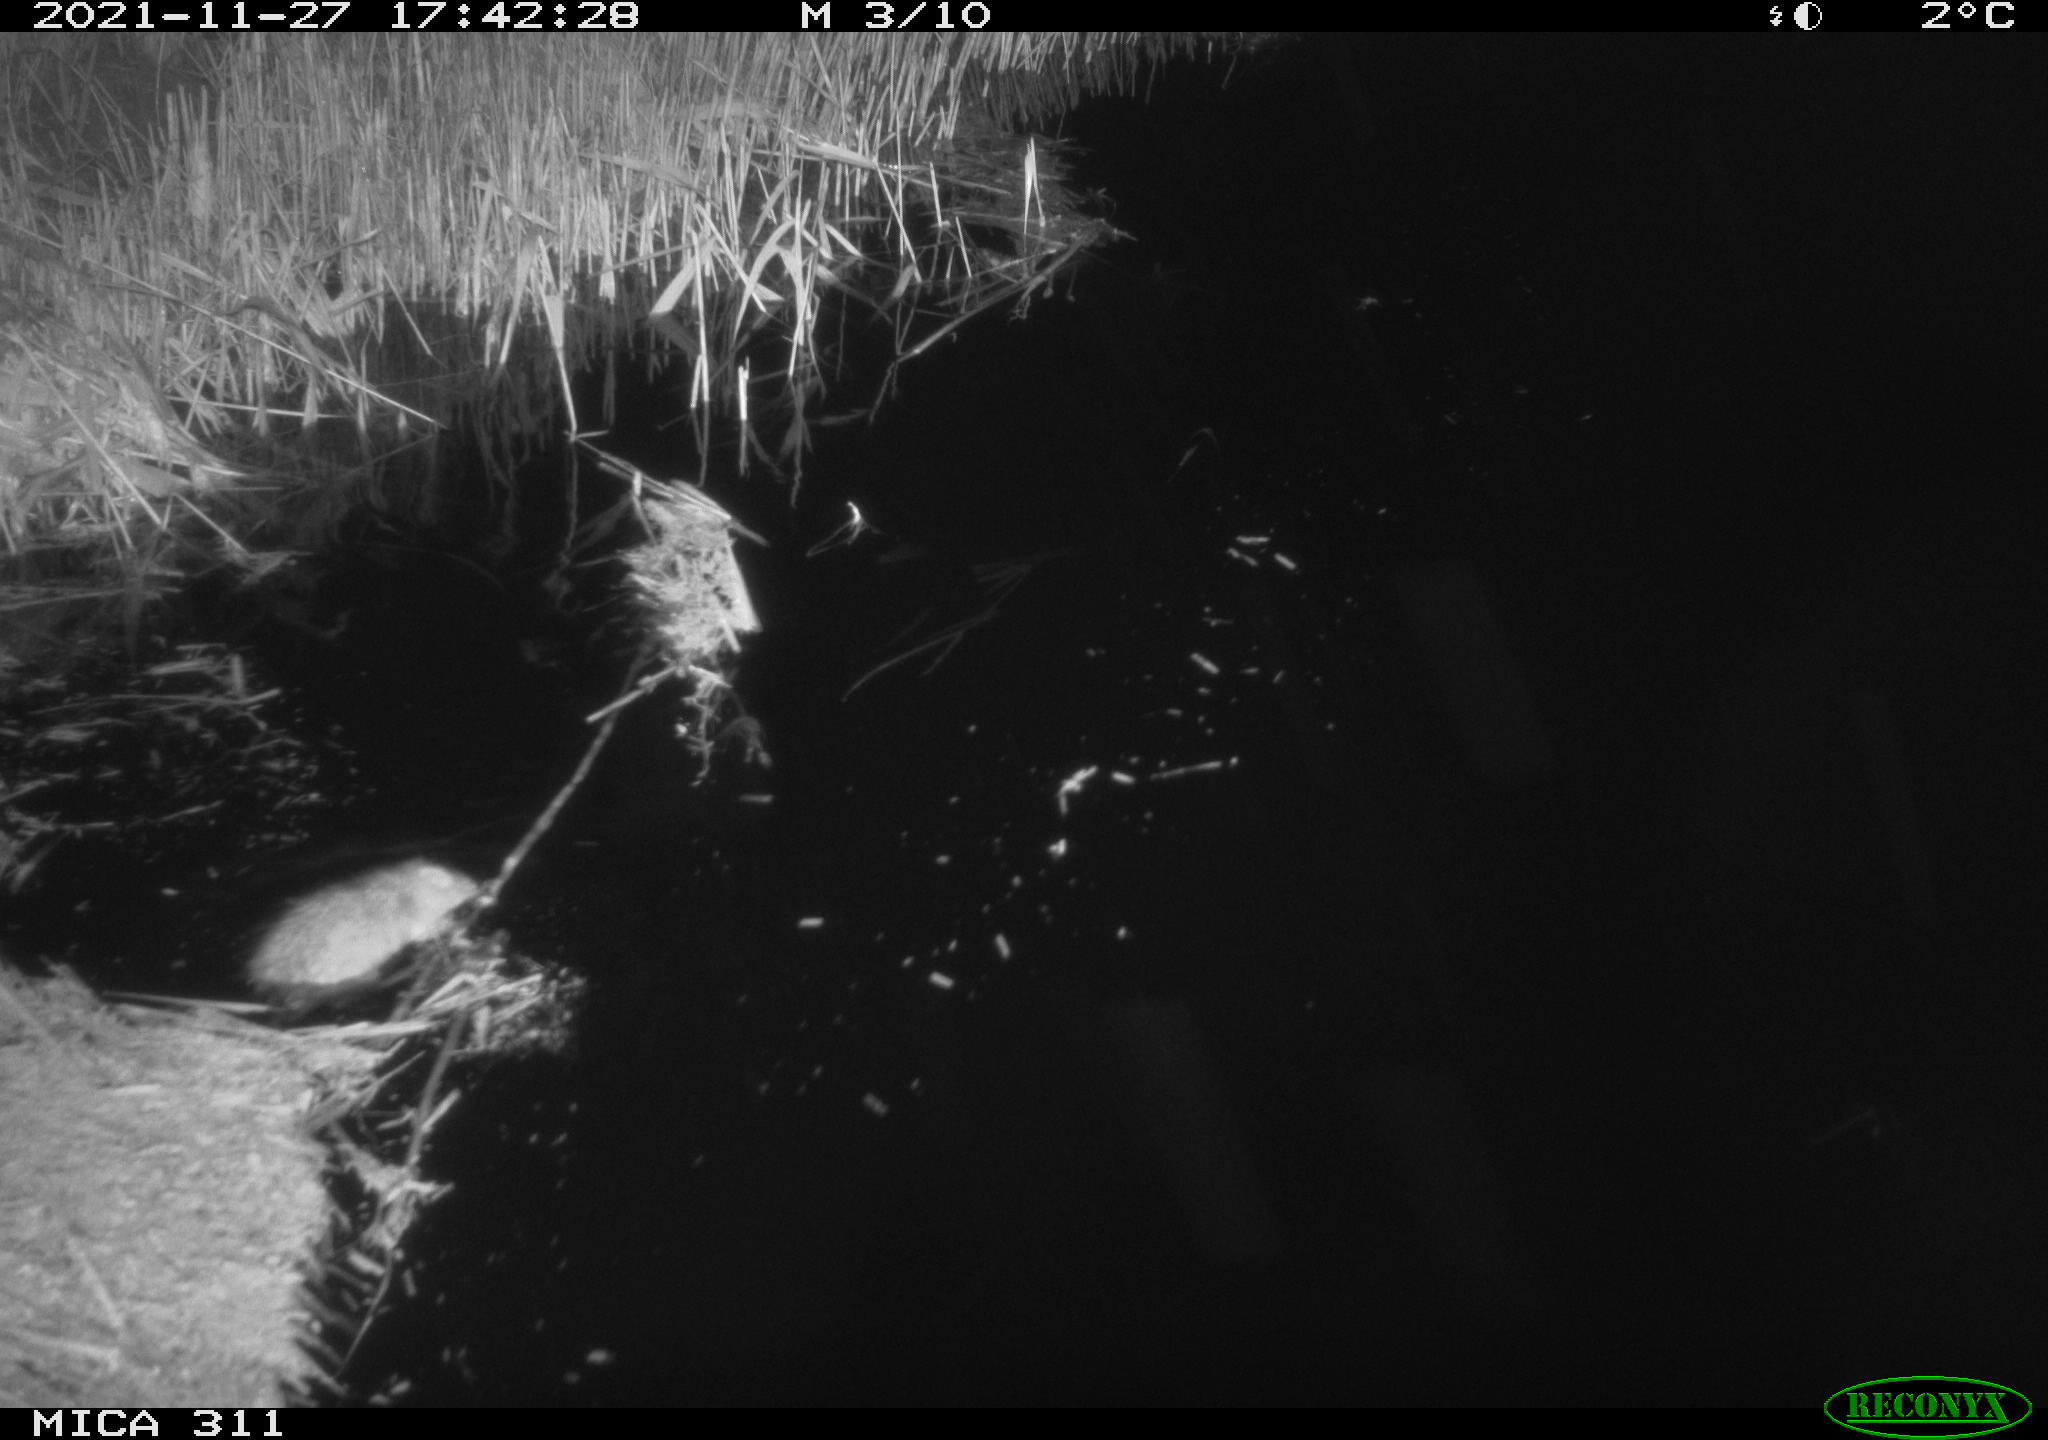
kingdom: Animalia
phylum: Chordata
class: Mammalia
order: Rodentia
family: Muridae
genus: Rattus
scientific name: Rattus norvegicus
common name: Brown rat
